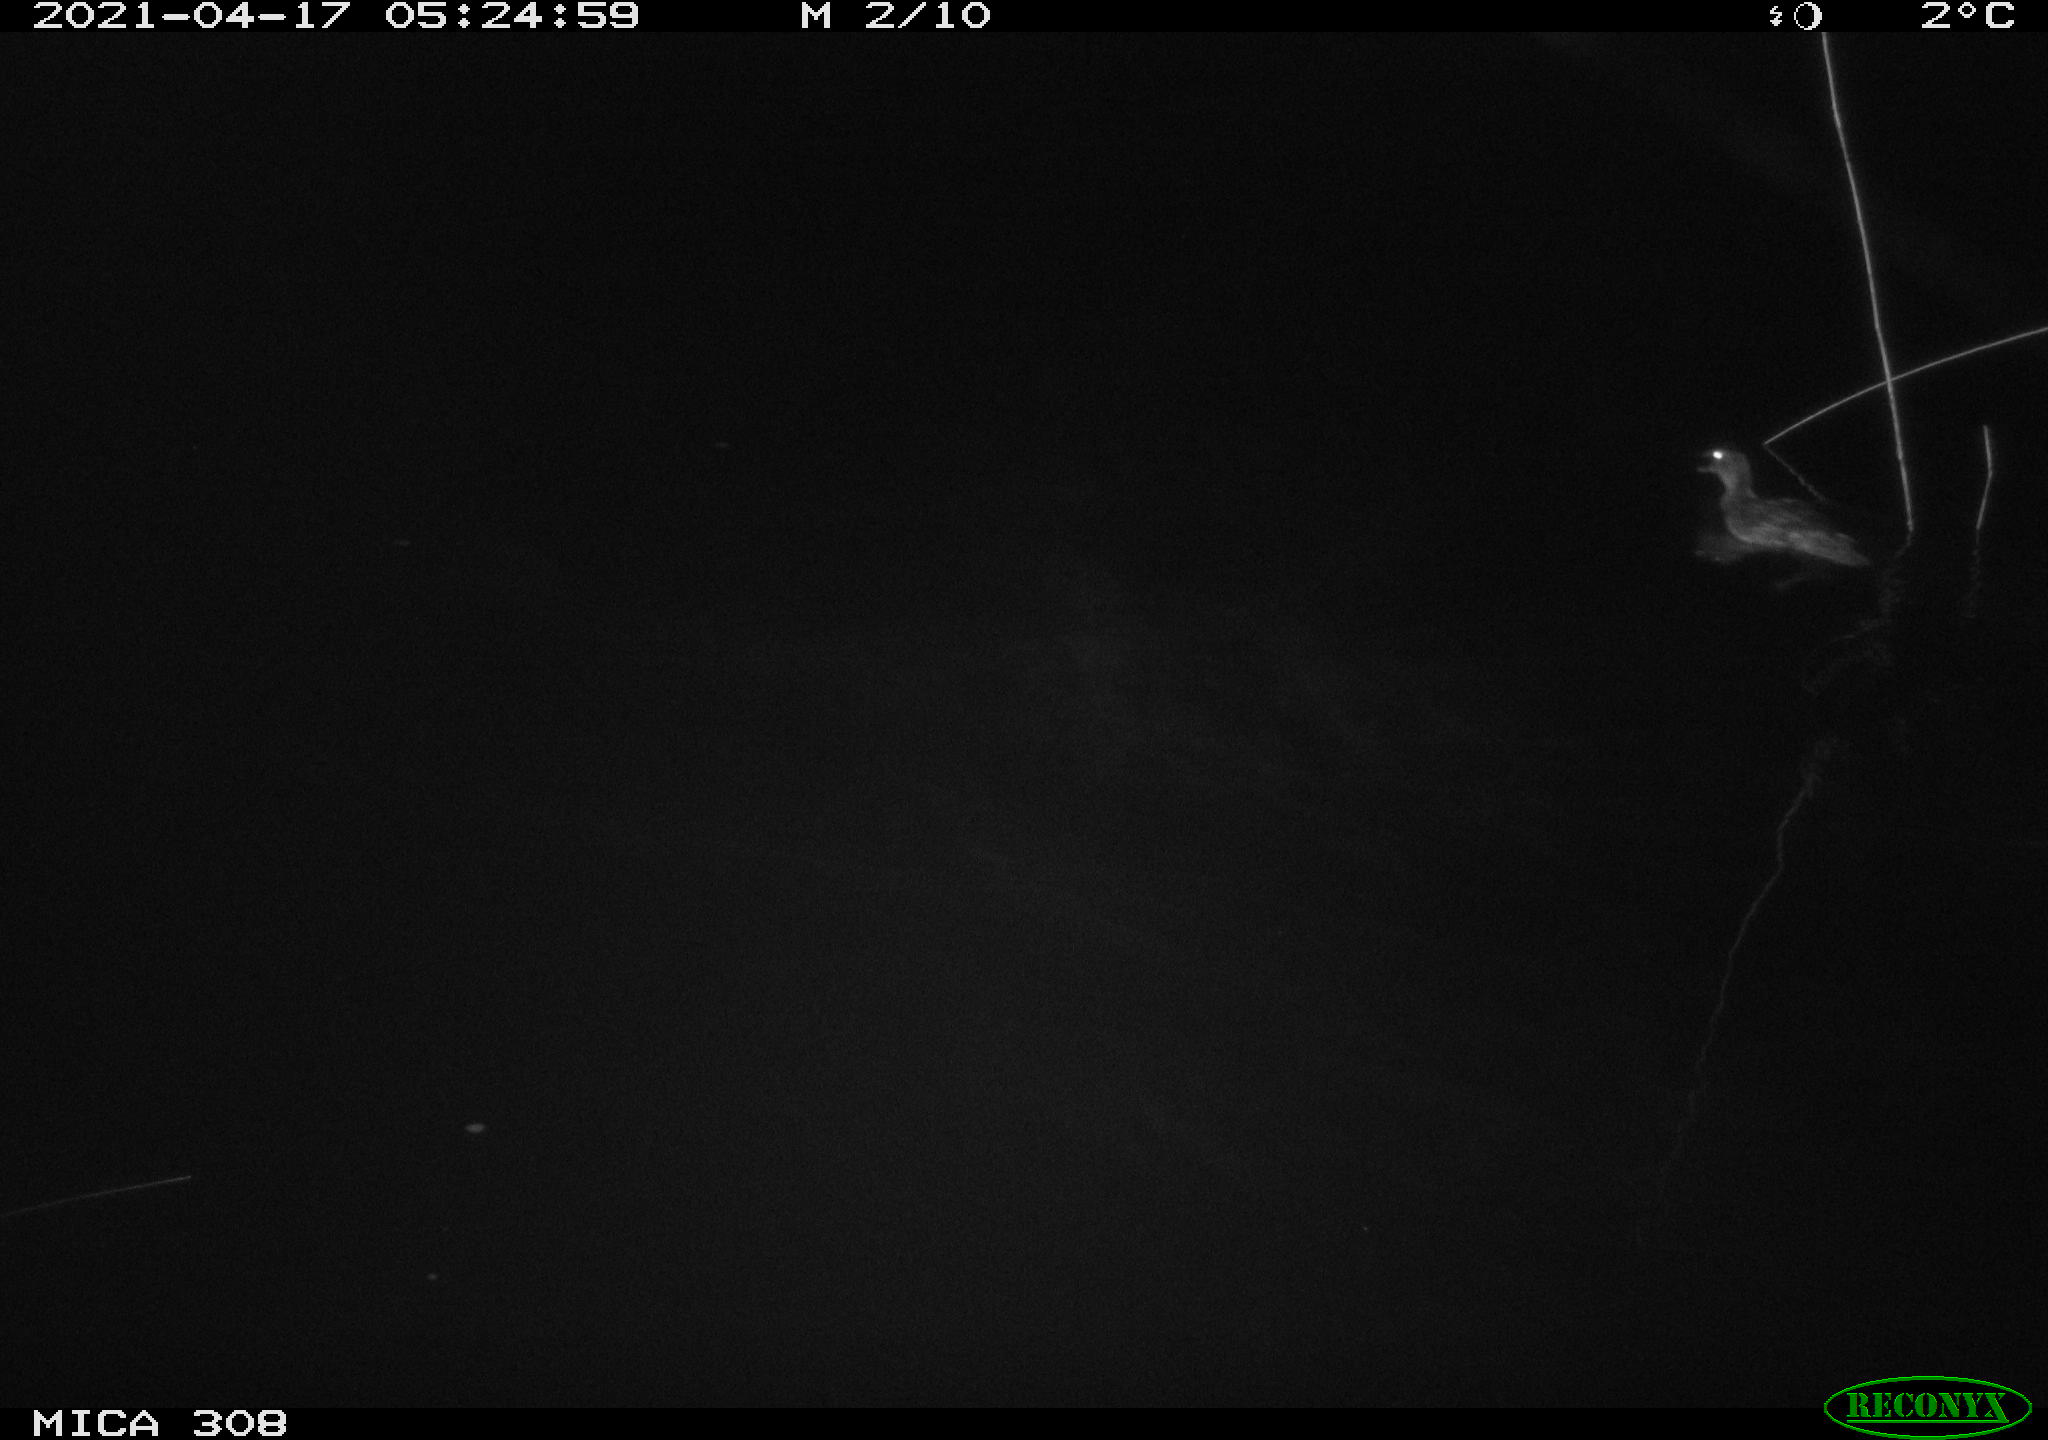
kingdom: Animalia
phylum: Chordata
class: Aves
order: Anseriformes
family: Anatidae
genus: Anas
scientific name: Anas platyrhynchos
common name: Mallard
